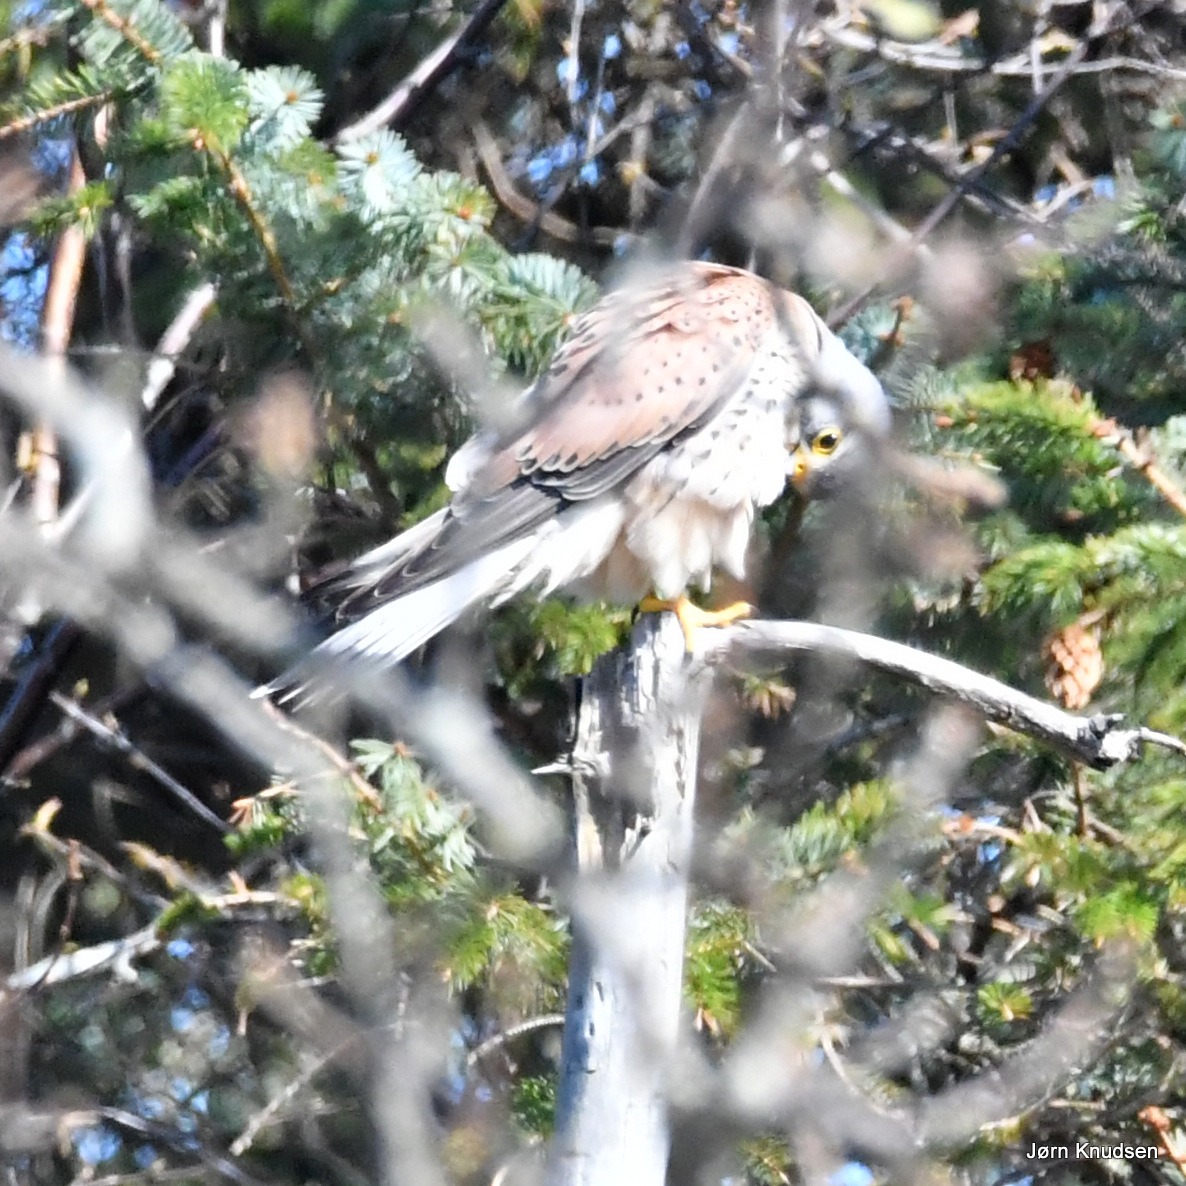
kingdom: Animalia
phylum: Chordata
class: Aves
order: Falconiformes
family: Falconidae
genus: Falco
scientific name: Falco tinnunculus
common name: Tårnfalk
